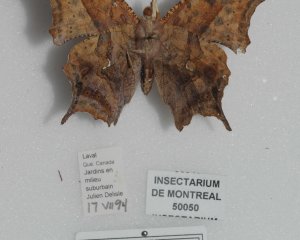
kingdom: Animalia
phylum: Arthropoda
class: Insecta
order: Lepidoptera
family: Nymphalidae
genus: Polygonia
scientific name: Polygonia interrogationis
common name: Question Mark
